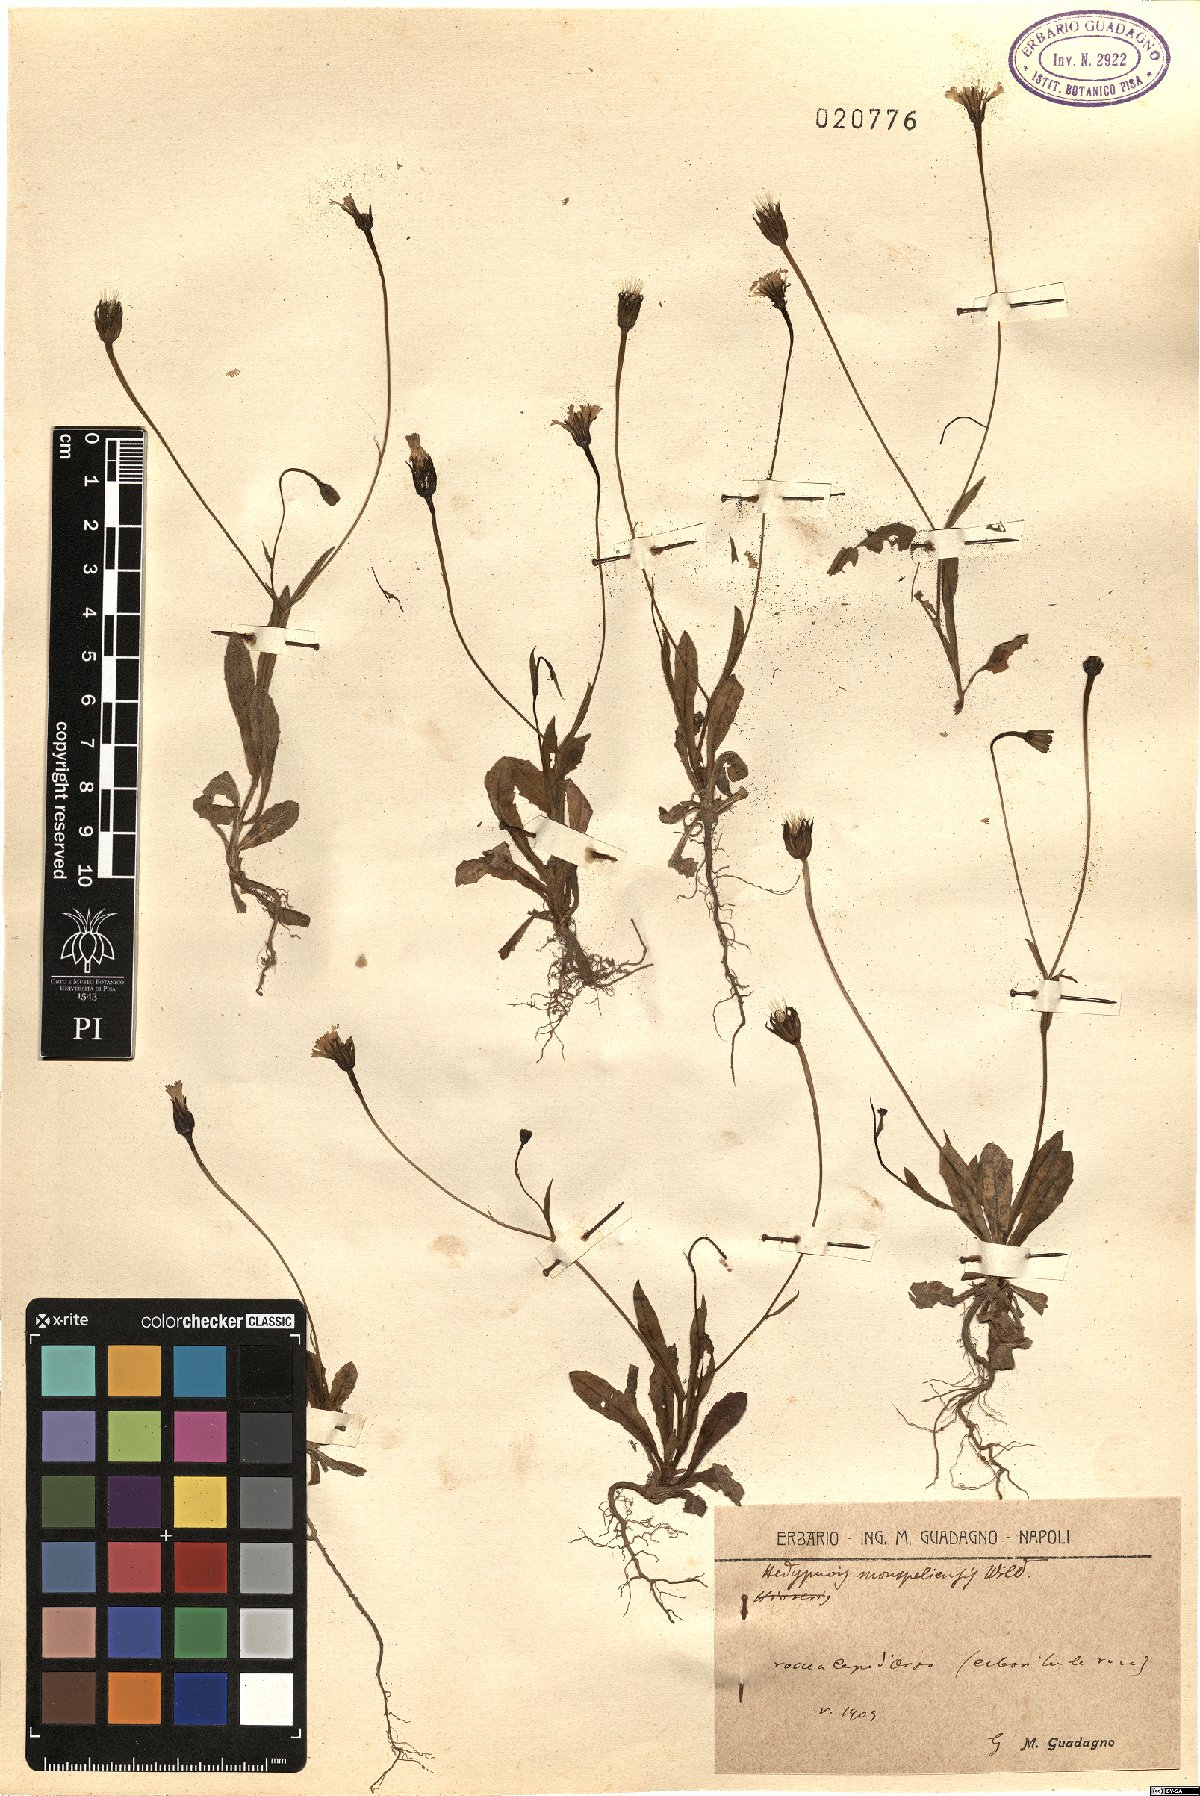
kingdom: Plantae
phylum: Tracheophyta
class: Magnoliopsida
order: Asterales
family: Asteraceae
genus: Hedypnois
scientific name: Hedypnois rhagadioloides
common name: Cretan weed
